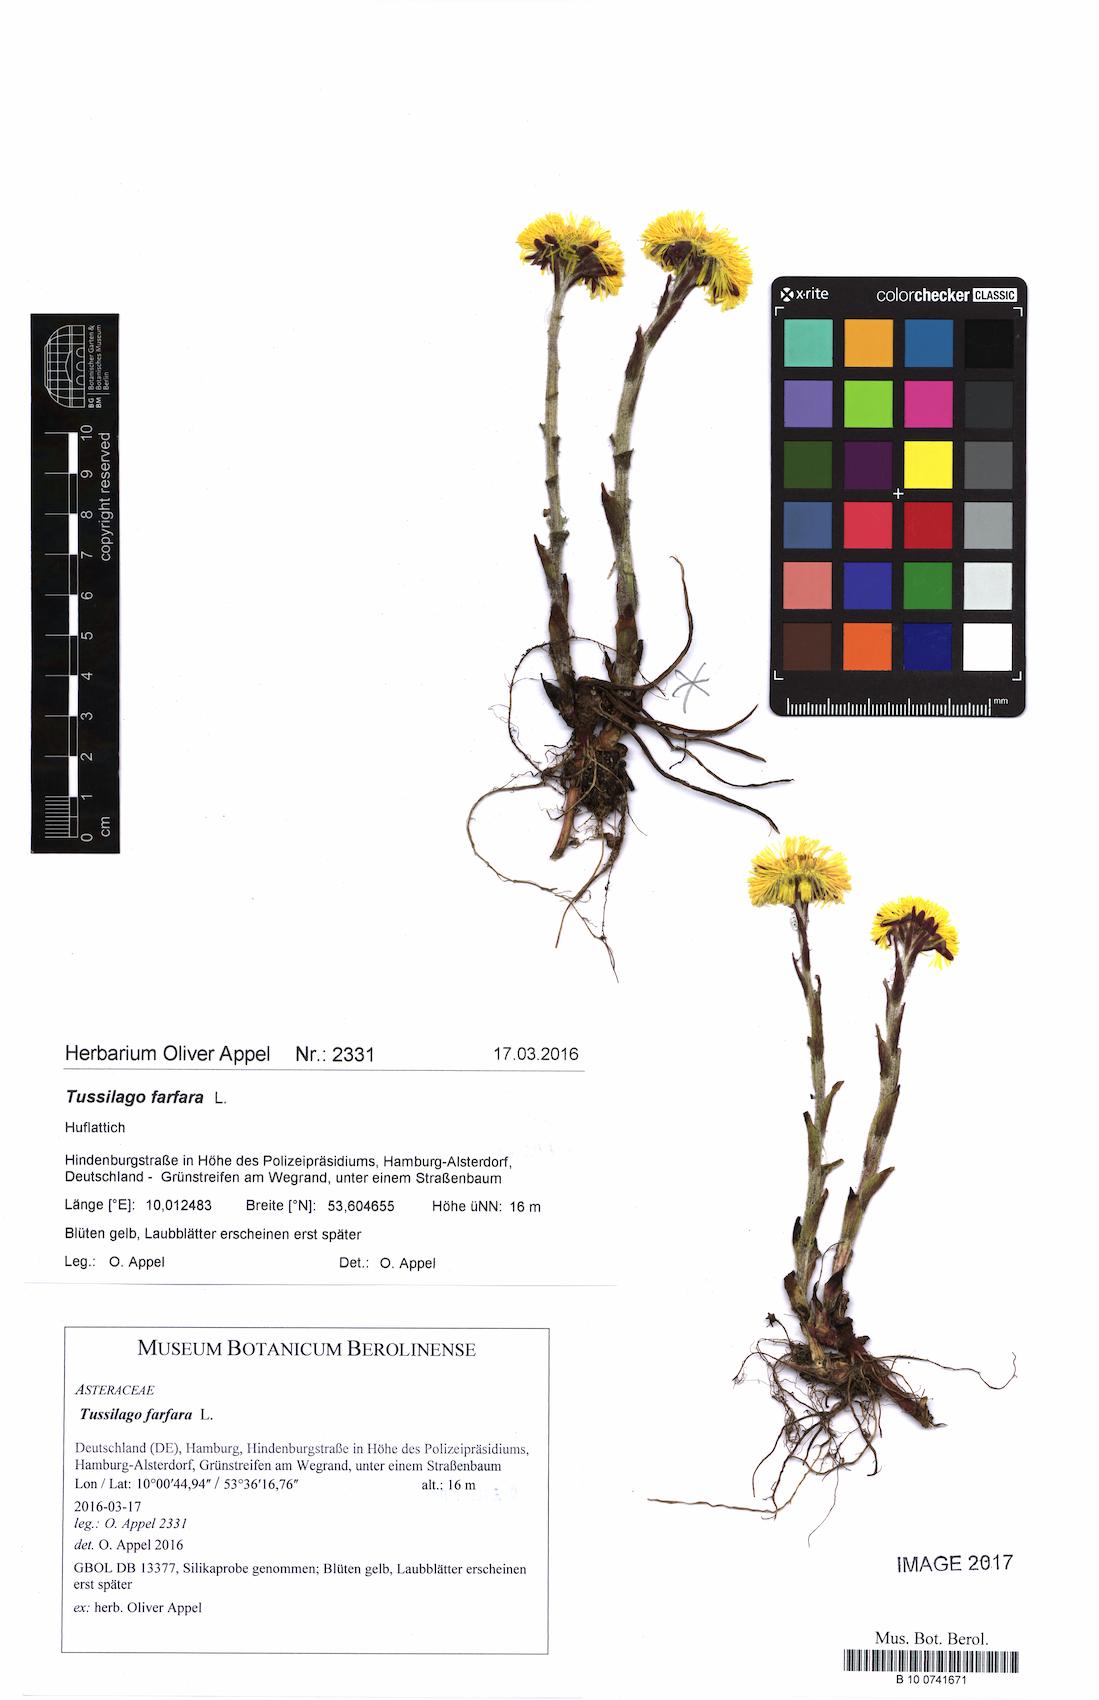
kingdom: Plantae
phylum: Tracheophyta
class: Magnoliopsida
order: Asterales
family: Asteraceae
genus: Tussilago
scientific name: Tussilago farfara
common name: Coltsfoot
